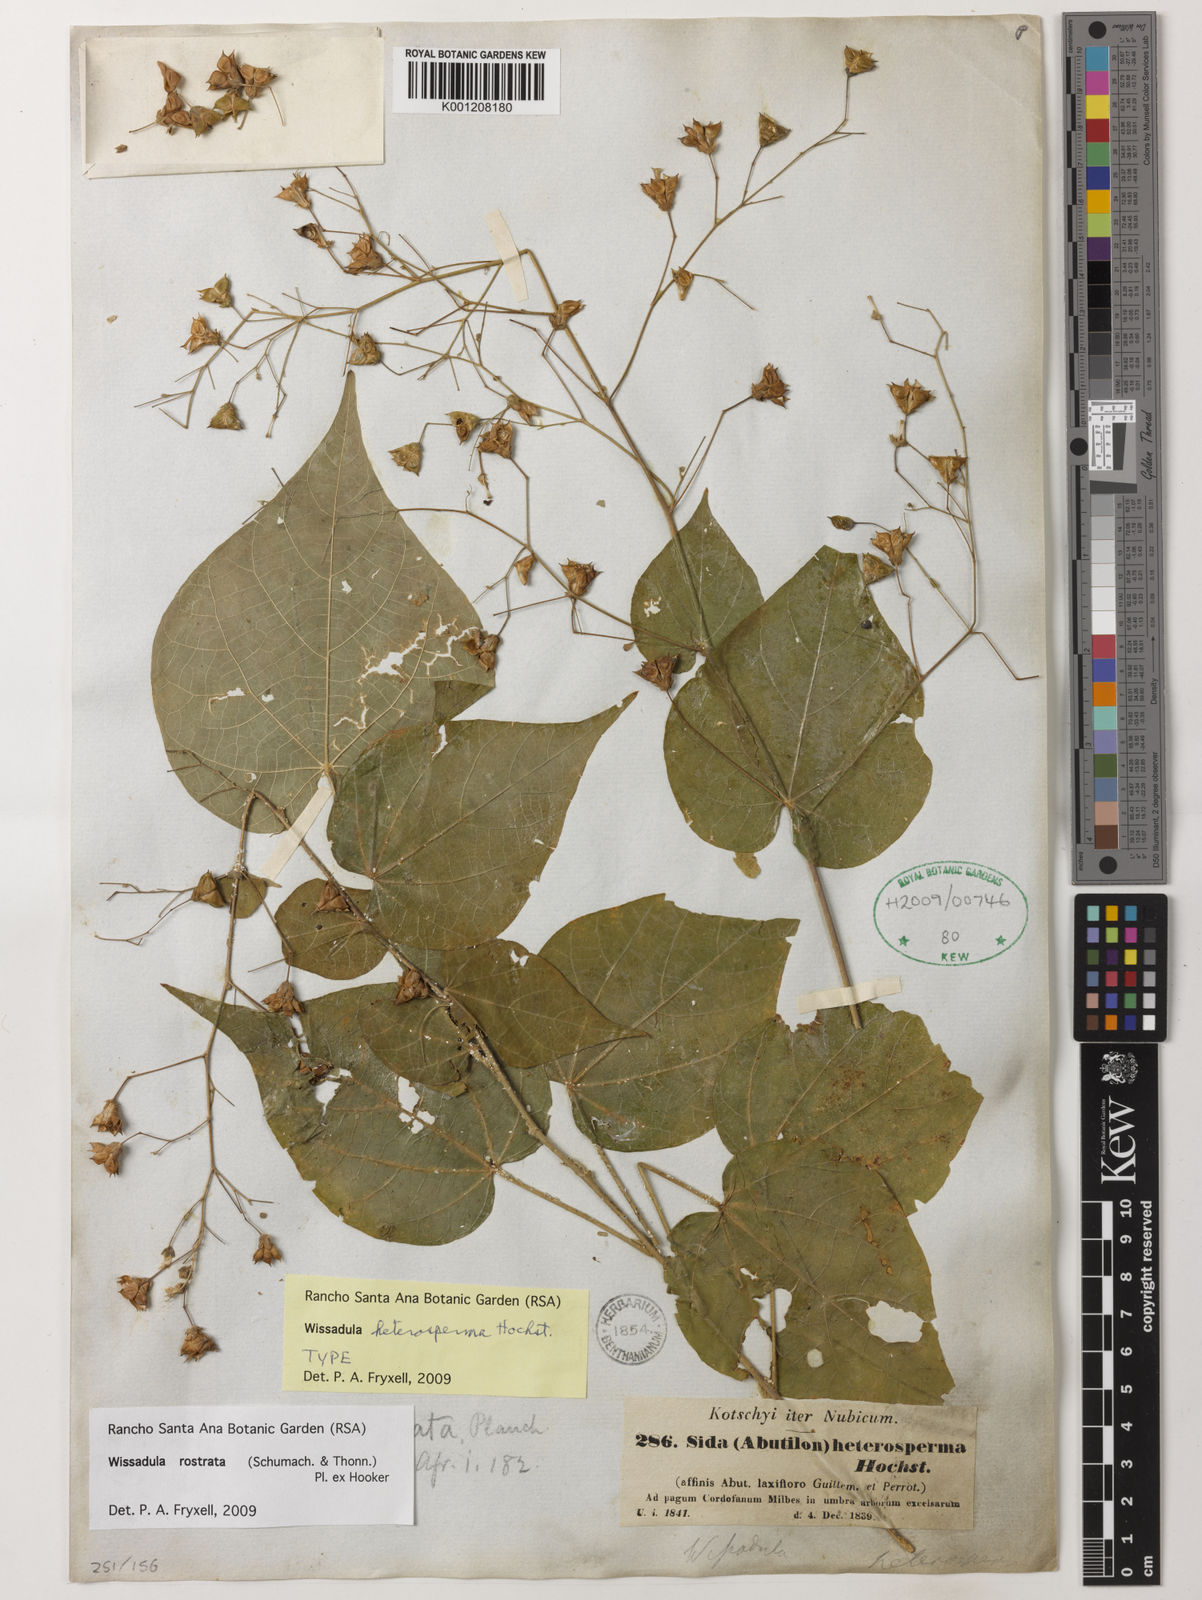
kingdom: Plantae
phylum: Tracheophyta
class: Magnoliopsida
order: Malvales
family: Malvaceae
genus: Wissadula
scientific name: Wissadula
